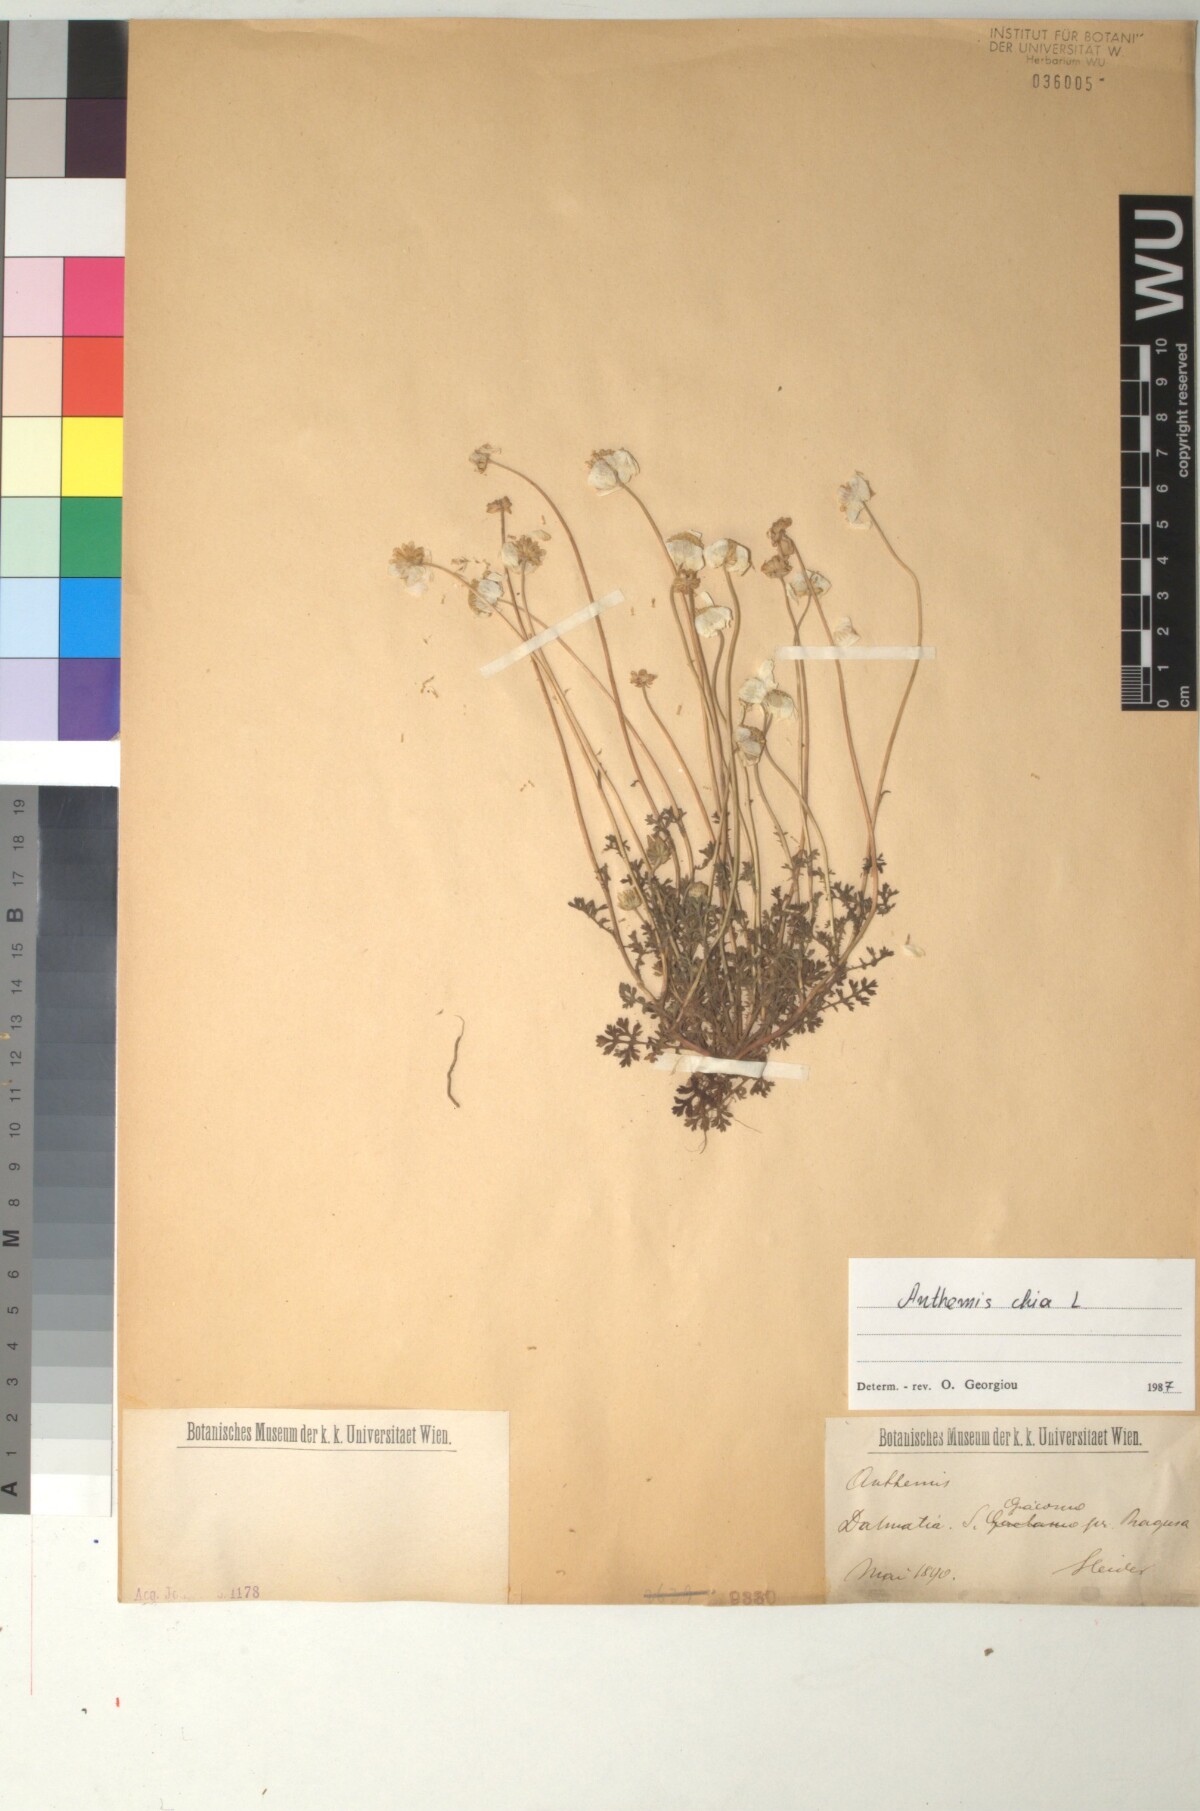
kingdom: Plantae
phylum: Tracheophyta
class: Magnoliopsida
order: Asterales
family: Asteraceae
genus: Anthemis
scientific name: Anthemis chia
